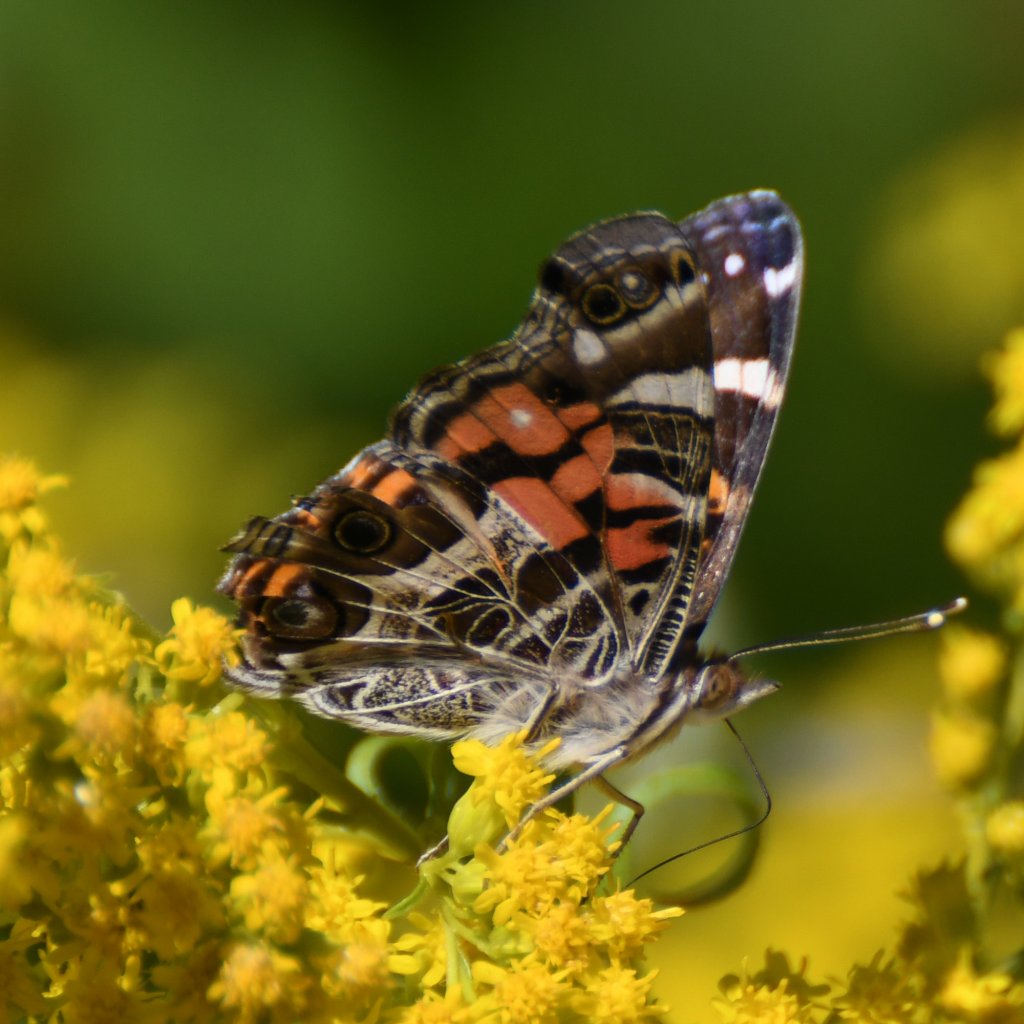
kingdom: Animalia
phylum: Arthropoda
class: Insecta
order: Lepidoptera
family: Nymphalidae
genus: Vanessa
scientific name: Vanessa virginiensis
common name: American Lady
